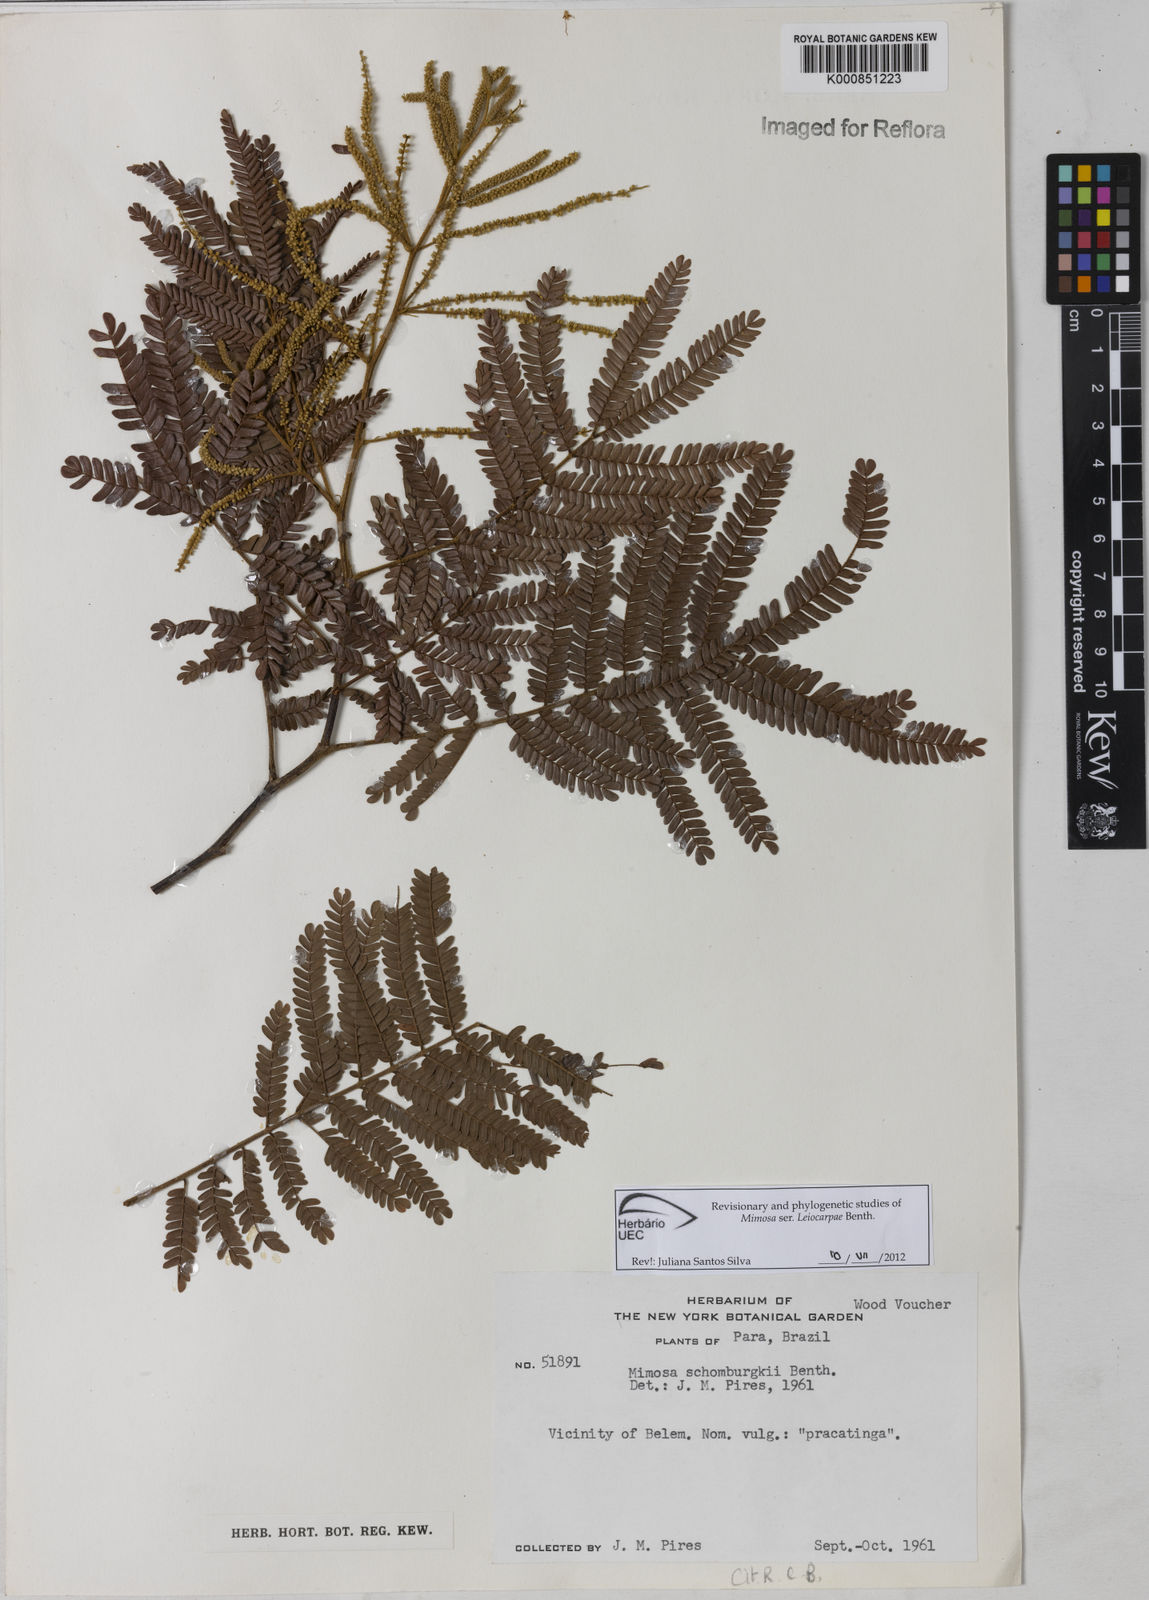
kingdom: Plantae
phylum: Tracheophyta
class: Magnoliopsida
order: Fabales
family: Fabaceae
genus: Mimosa
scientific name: Mimosa schomburgkii
